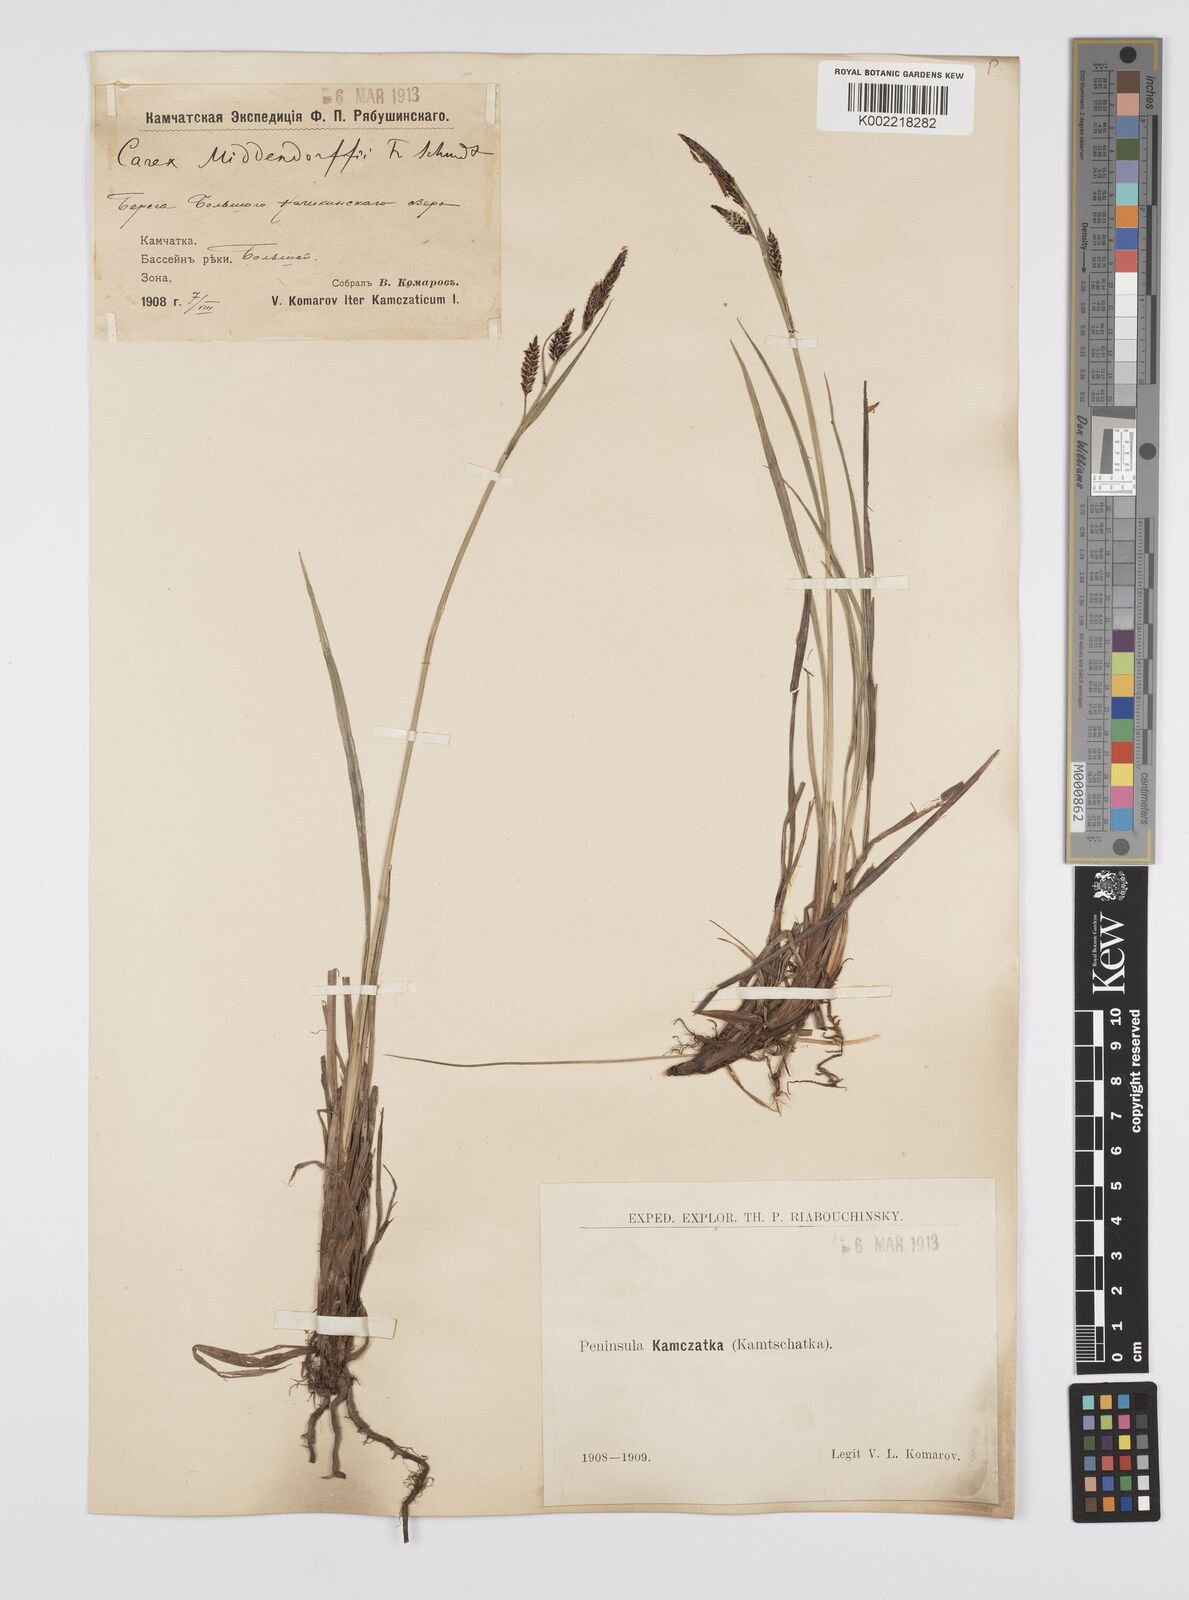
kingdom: Plantae
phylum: Tracheophyta
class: Liliopsida
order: Poales
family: Cyperaceae
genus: Carex
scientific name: Carex middendorffii
